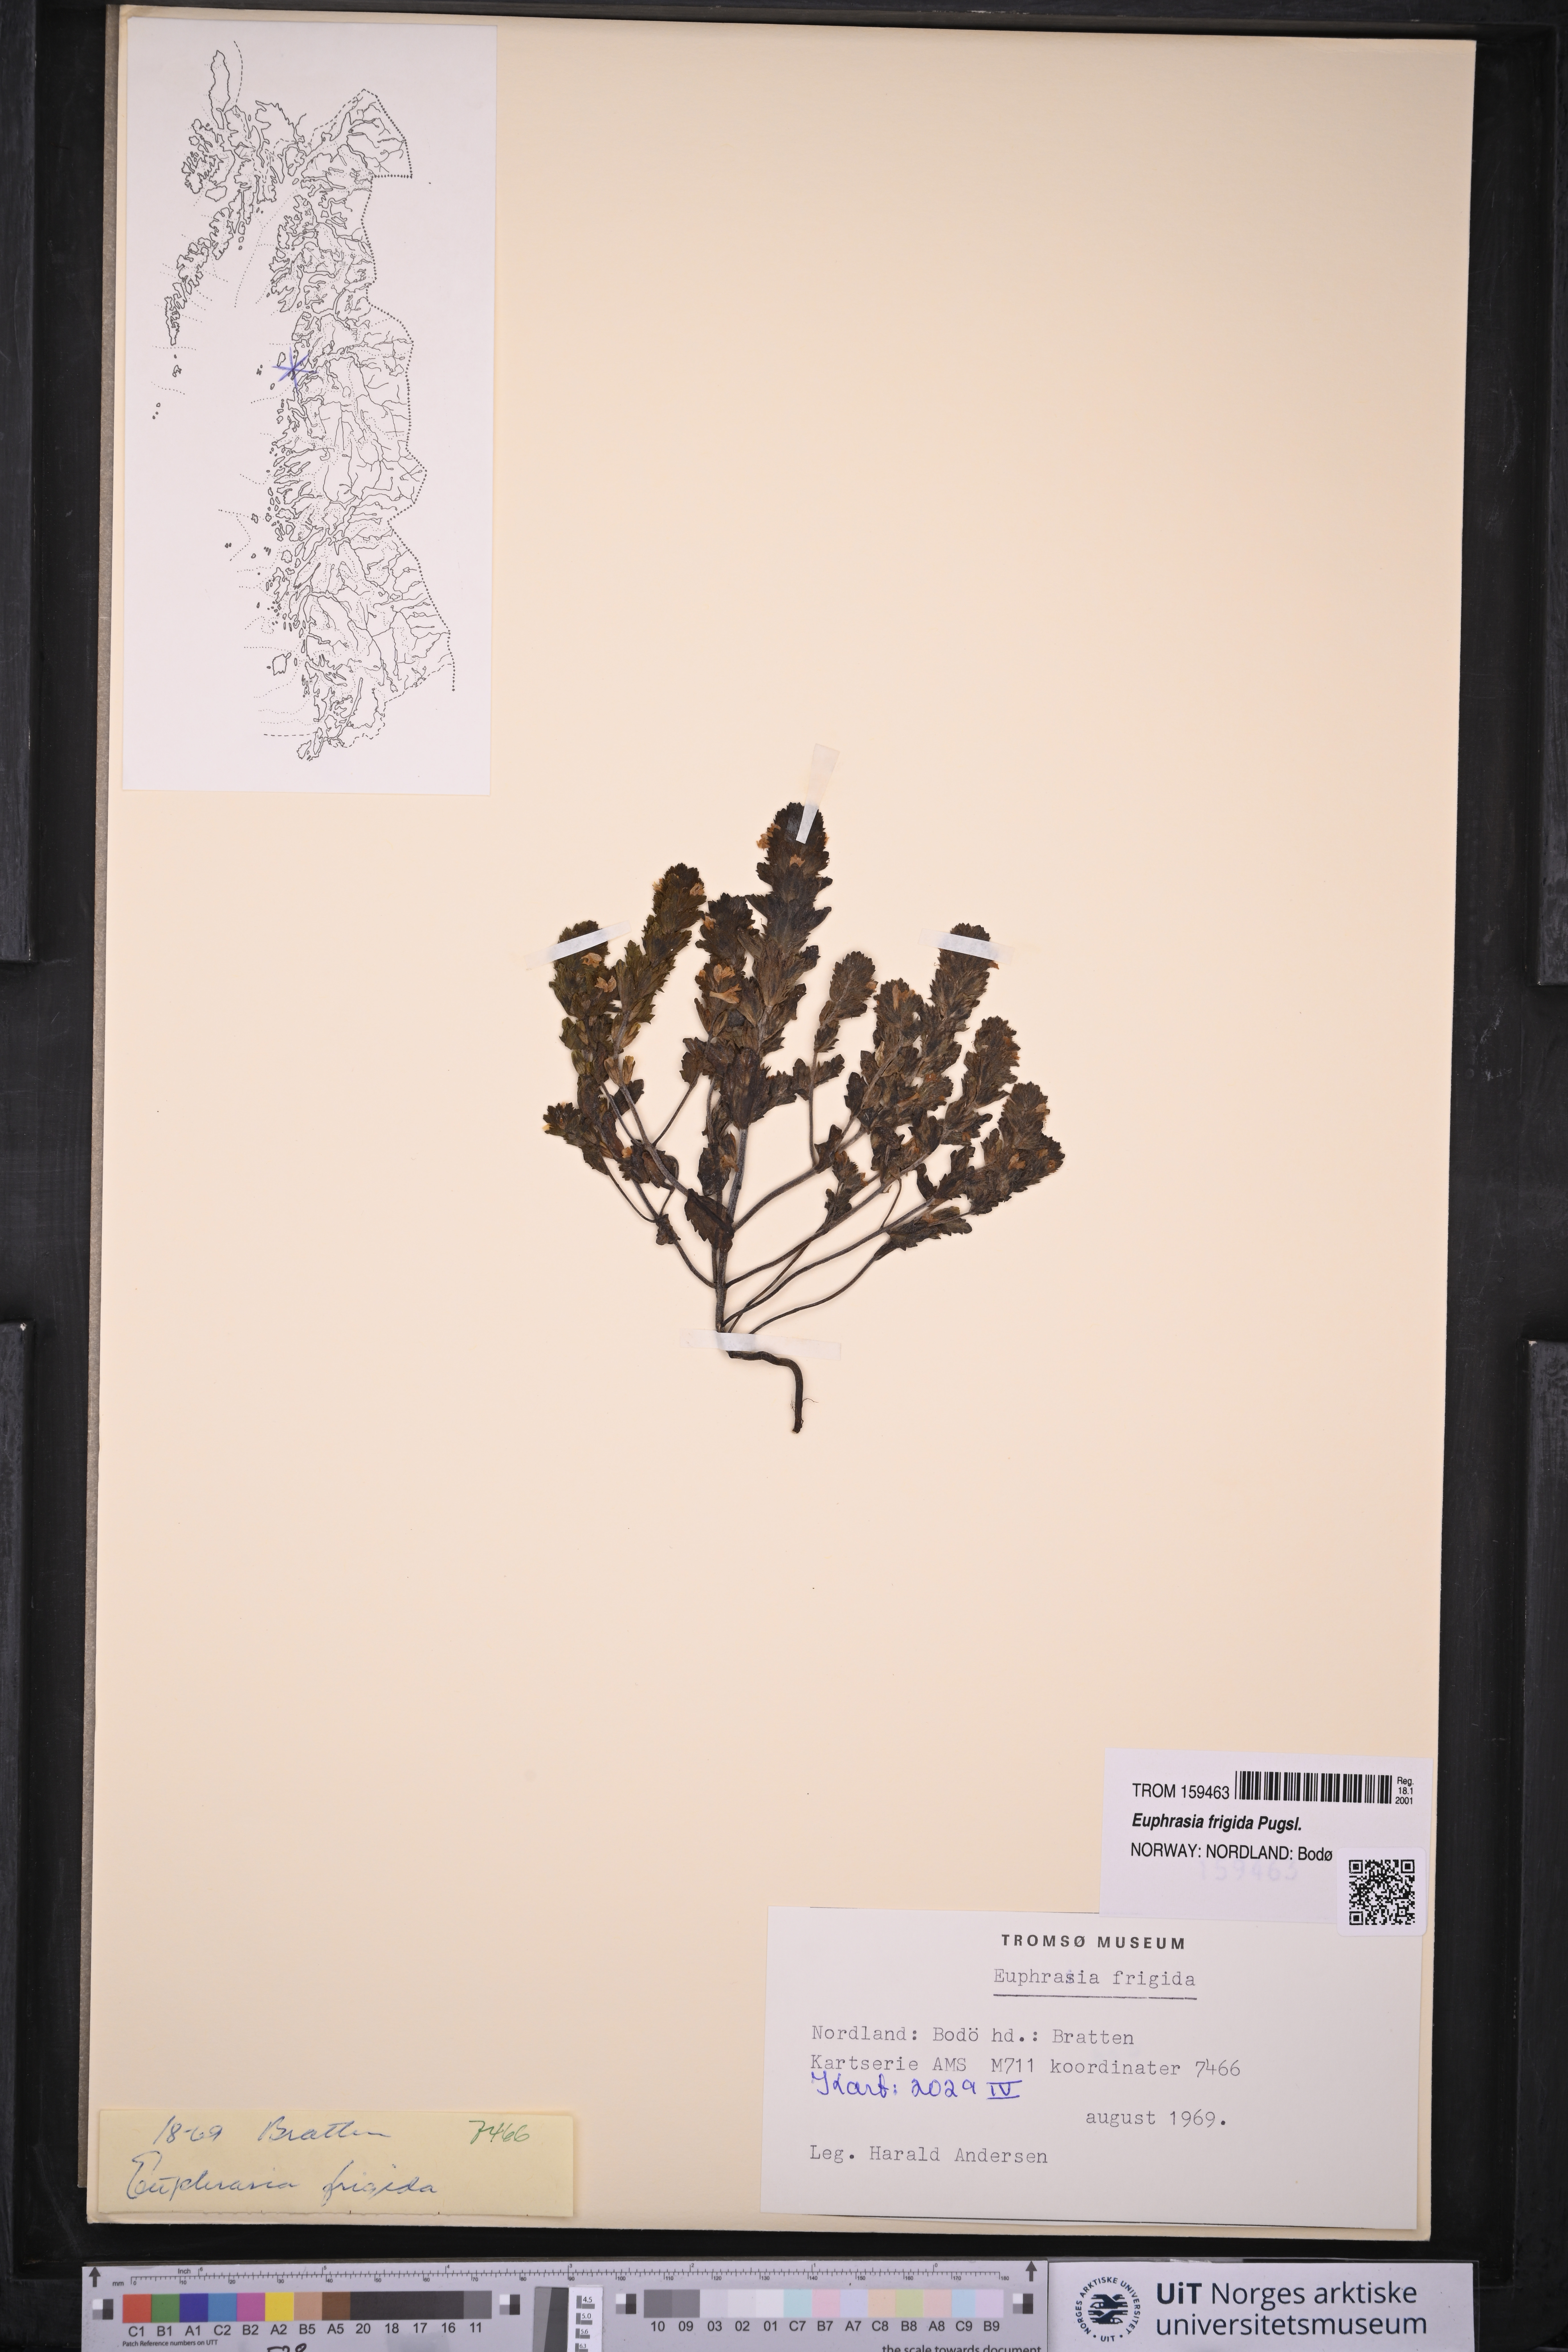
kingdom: Plantae
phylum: Tracheophyta
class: Magnoliopsida
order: Lamiales
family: Orobanchaceae
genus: Euphrasia
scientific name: Euphrasia frigida
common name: An eyebright
